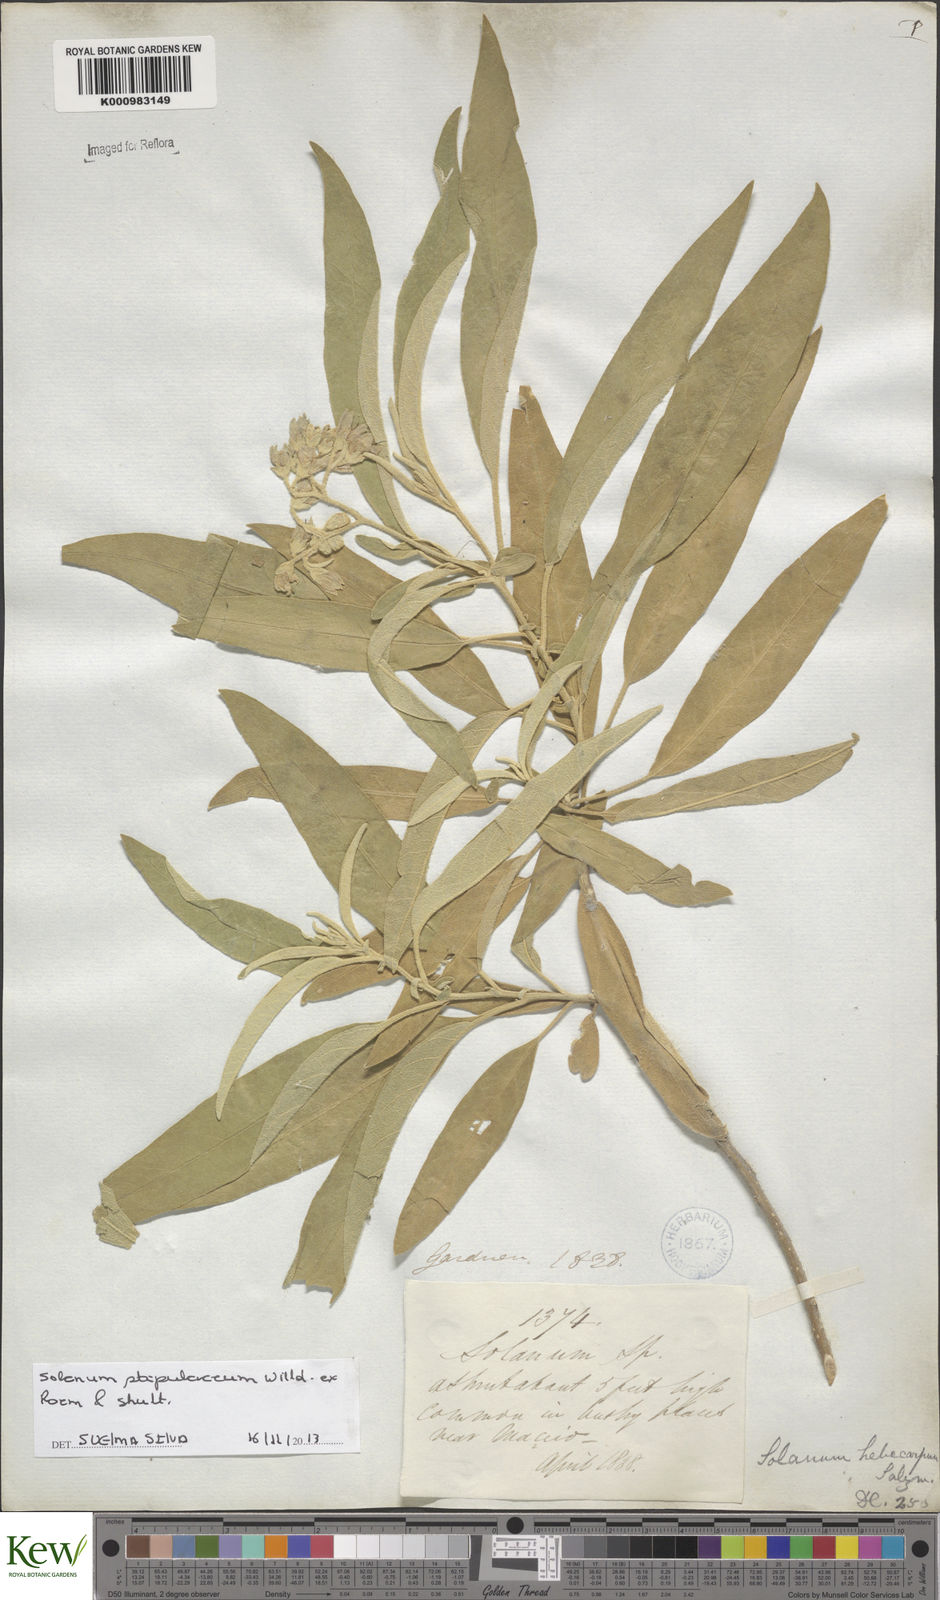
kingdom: Plantae
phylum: Tracheophyta
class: Magnoliopsida
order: Solanales
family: Solanaceae
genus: Solanum
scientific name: Solanum stipulaceum
